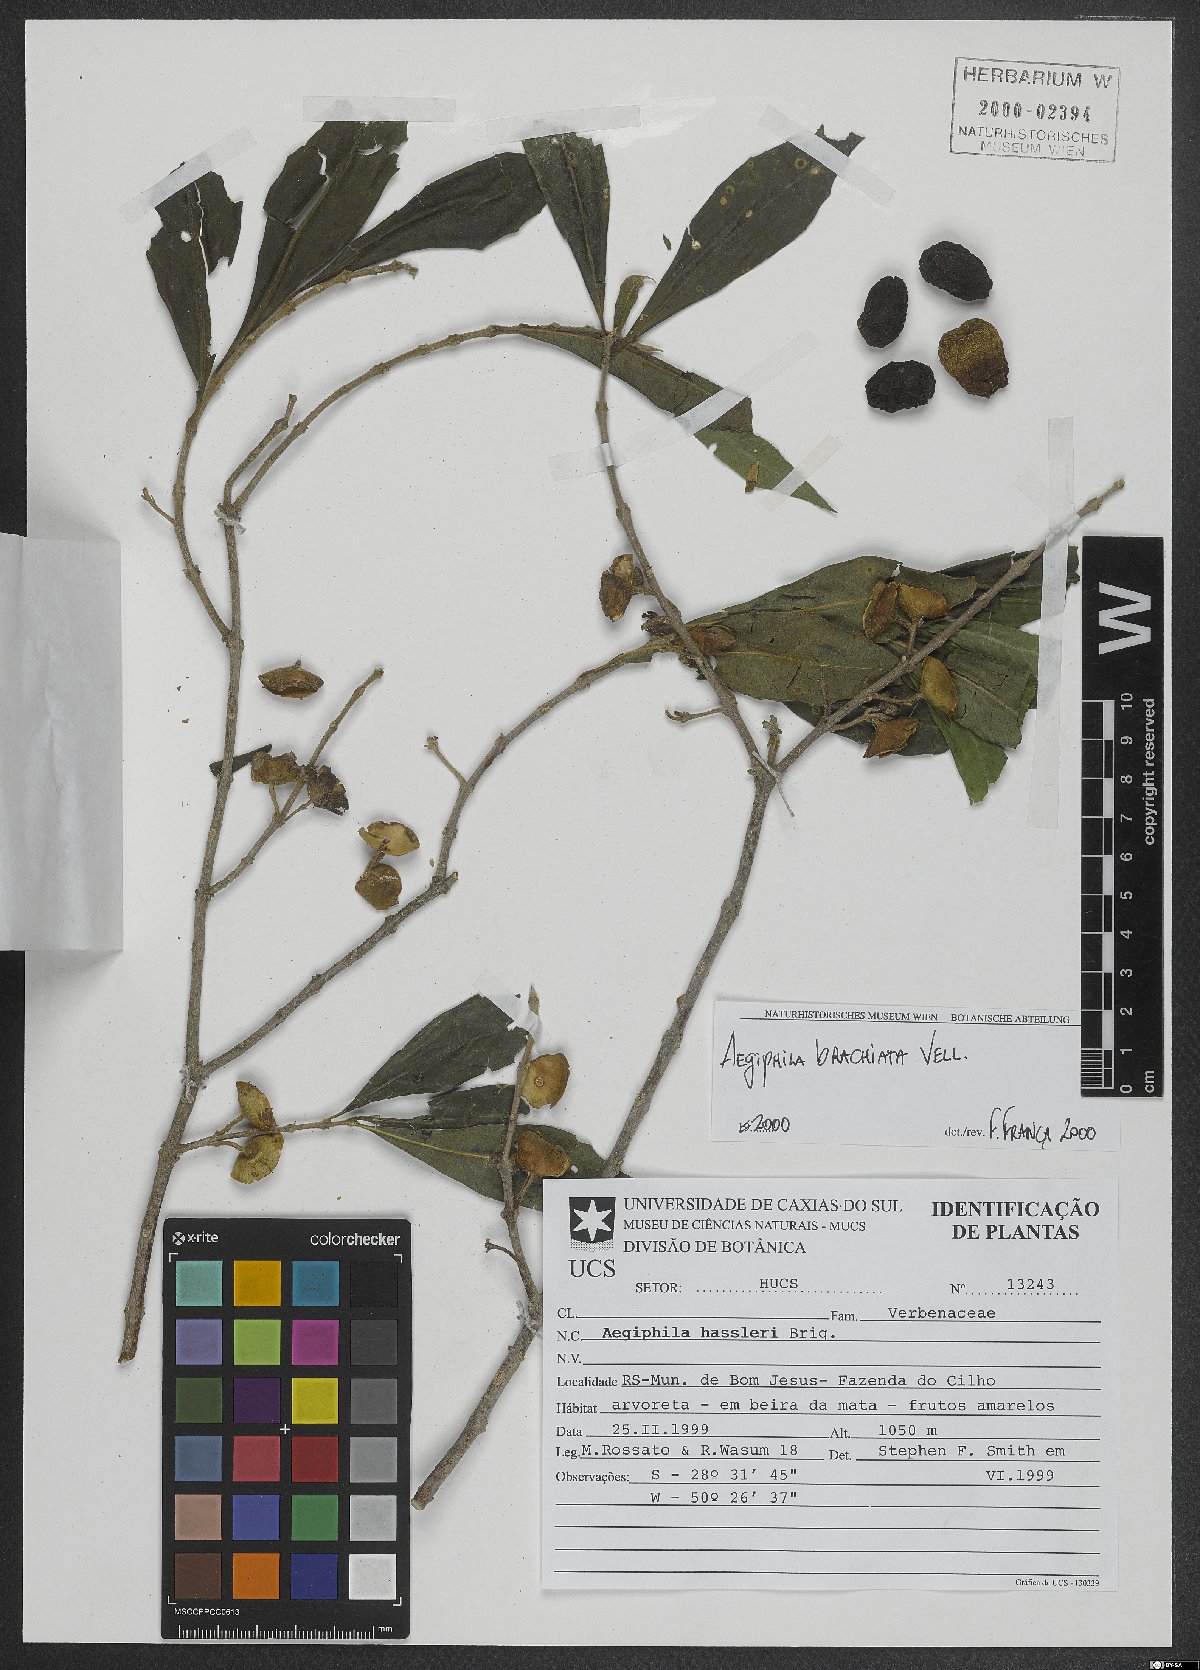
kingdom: Plantae
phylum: Tracheophyta
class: Magnoliopsida
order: Lamiales
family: Lamiaceae
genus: Aegiphila
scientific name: Aegiphila brachiata
